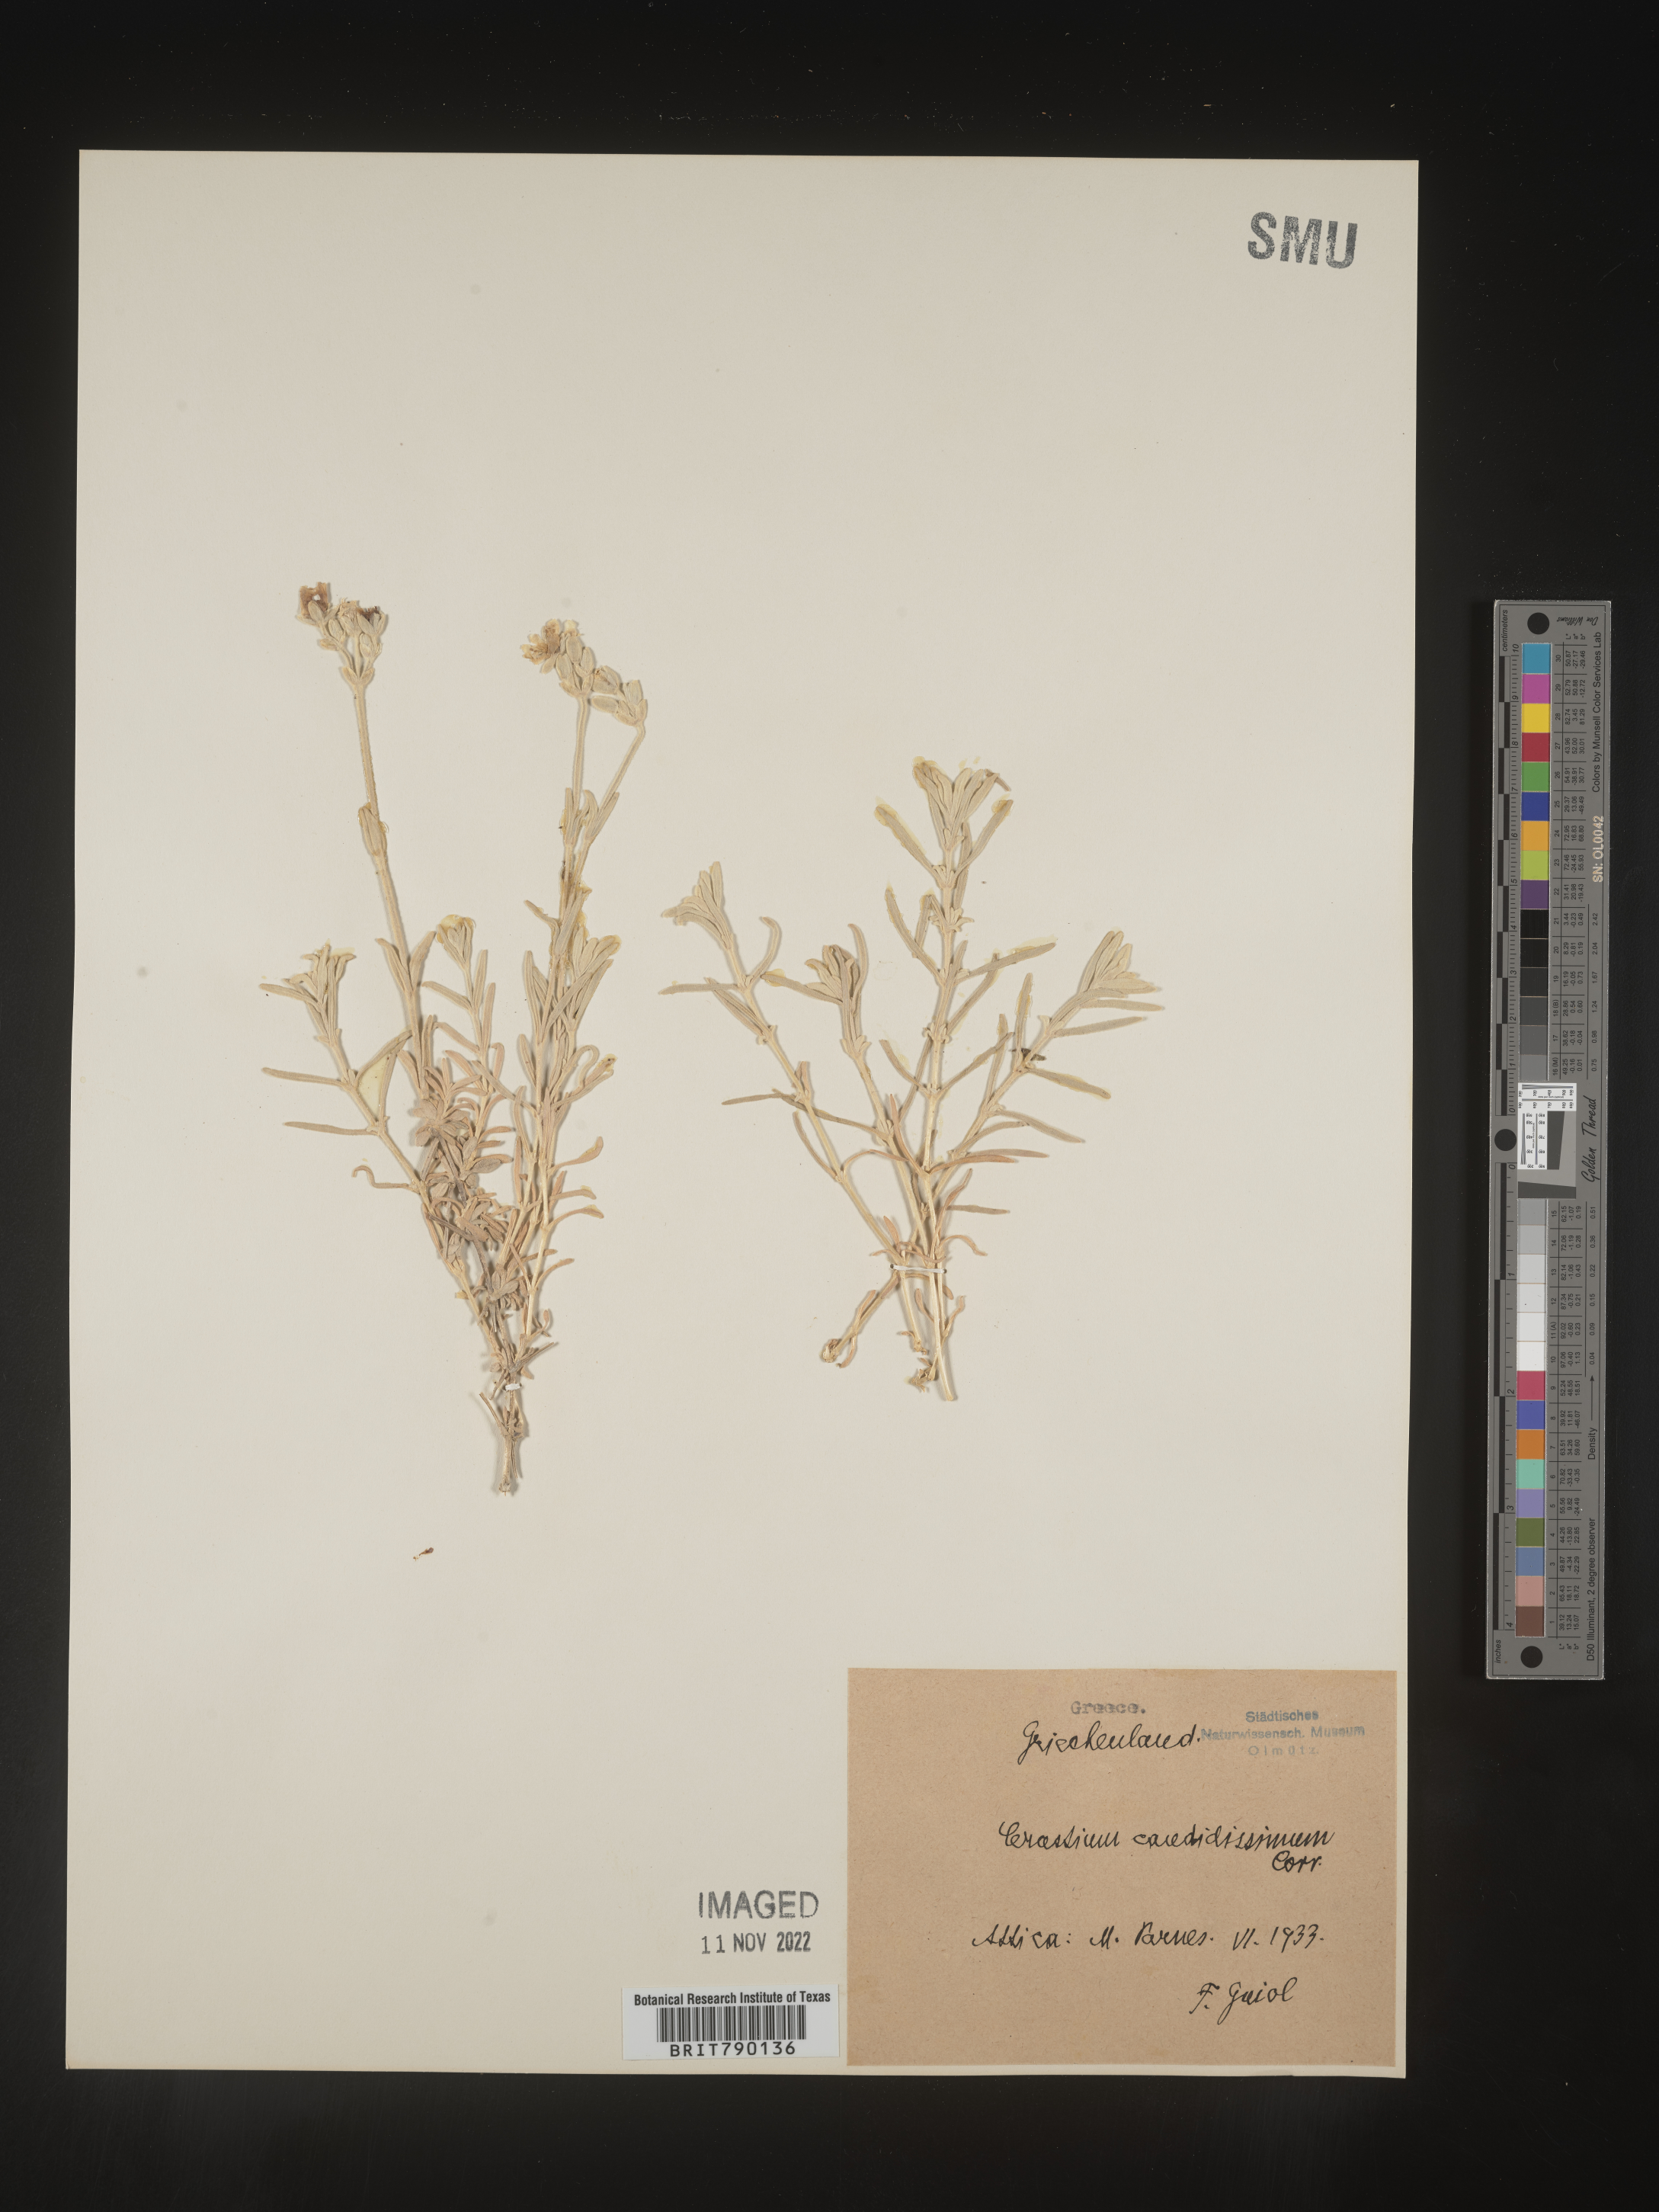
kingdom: Plantae
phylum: Tracheophyta
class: Magnoliopsida
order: Caryophyllales
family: Caryophyllaceae
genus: Cerastium
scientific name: Cerastium
